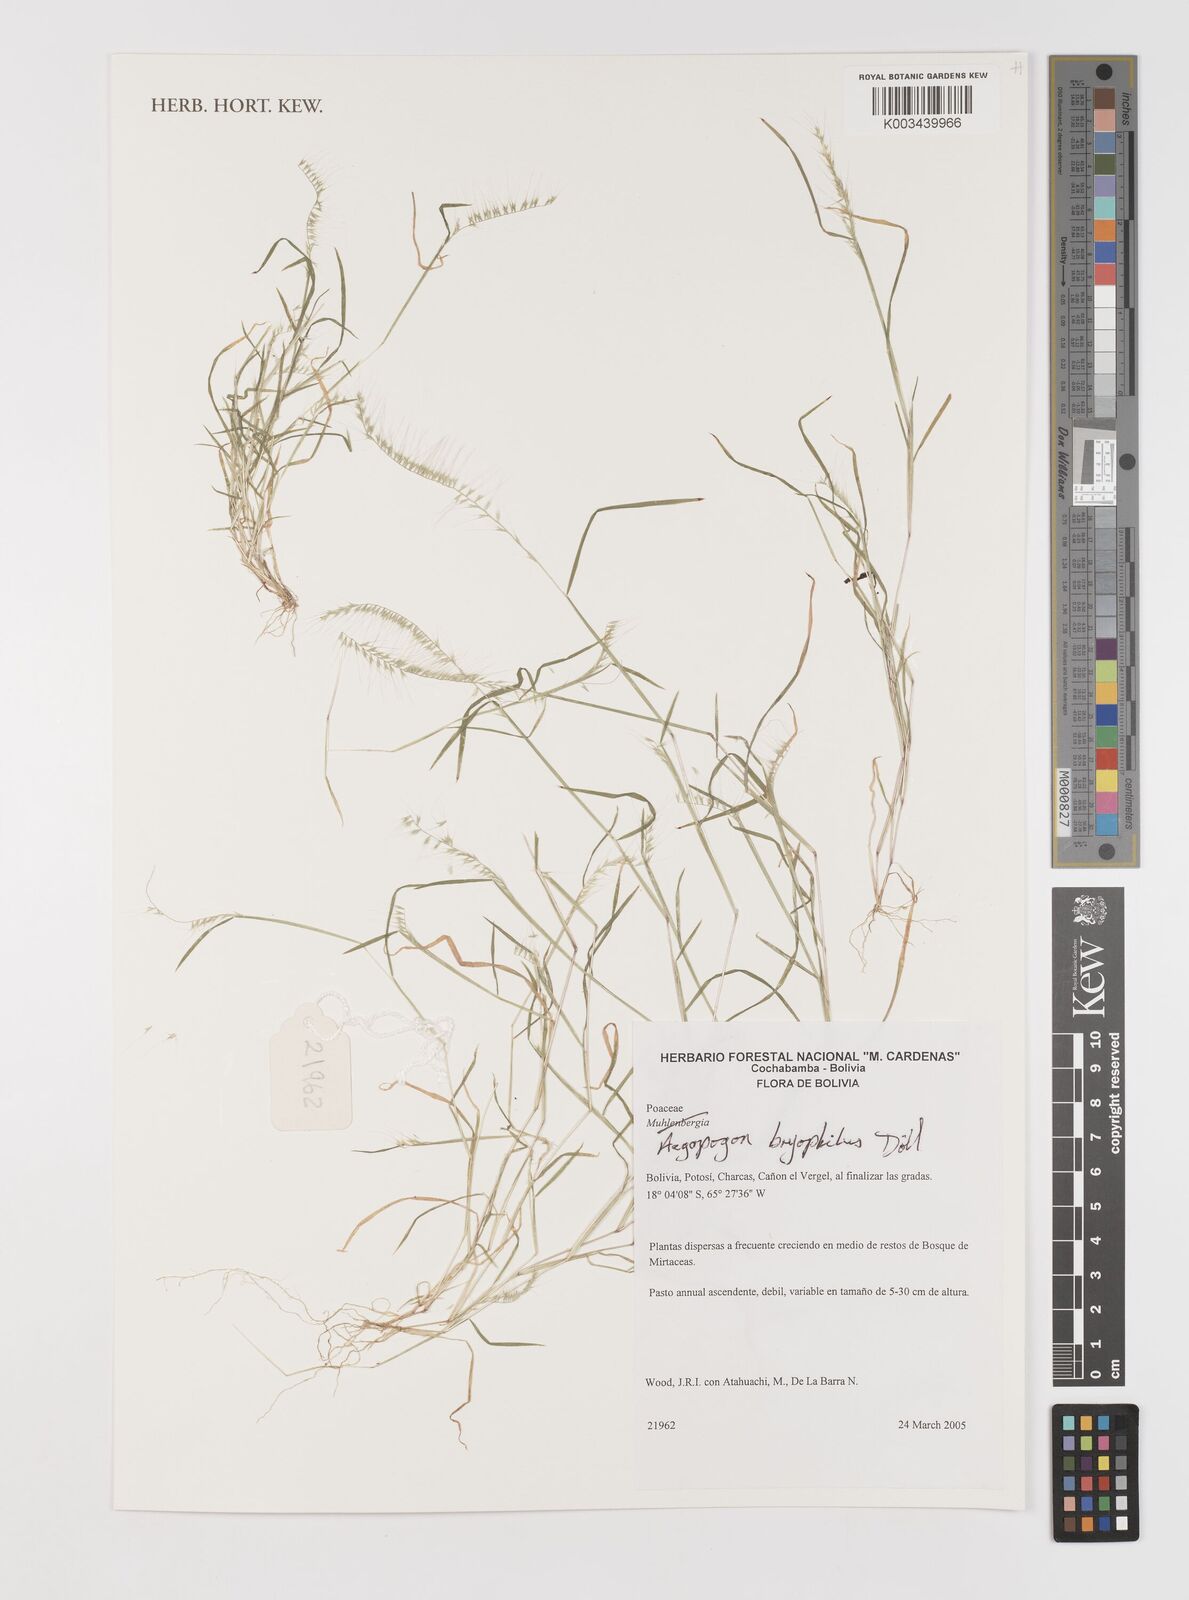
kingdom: Plantae
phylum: Tracheophyta
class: Liliopsida
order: Poales
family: Poaceae
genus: Muhlenbergia
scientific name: Muhlenbergia bryophilus
